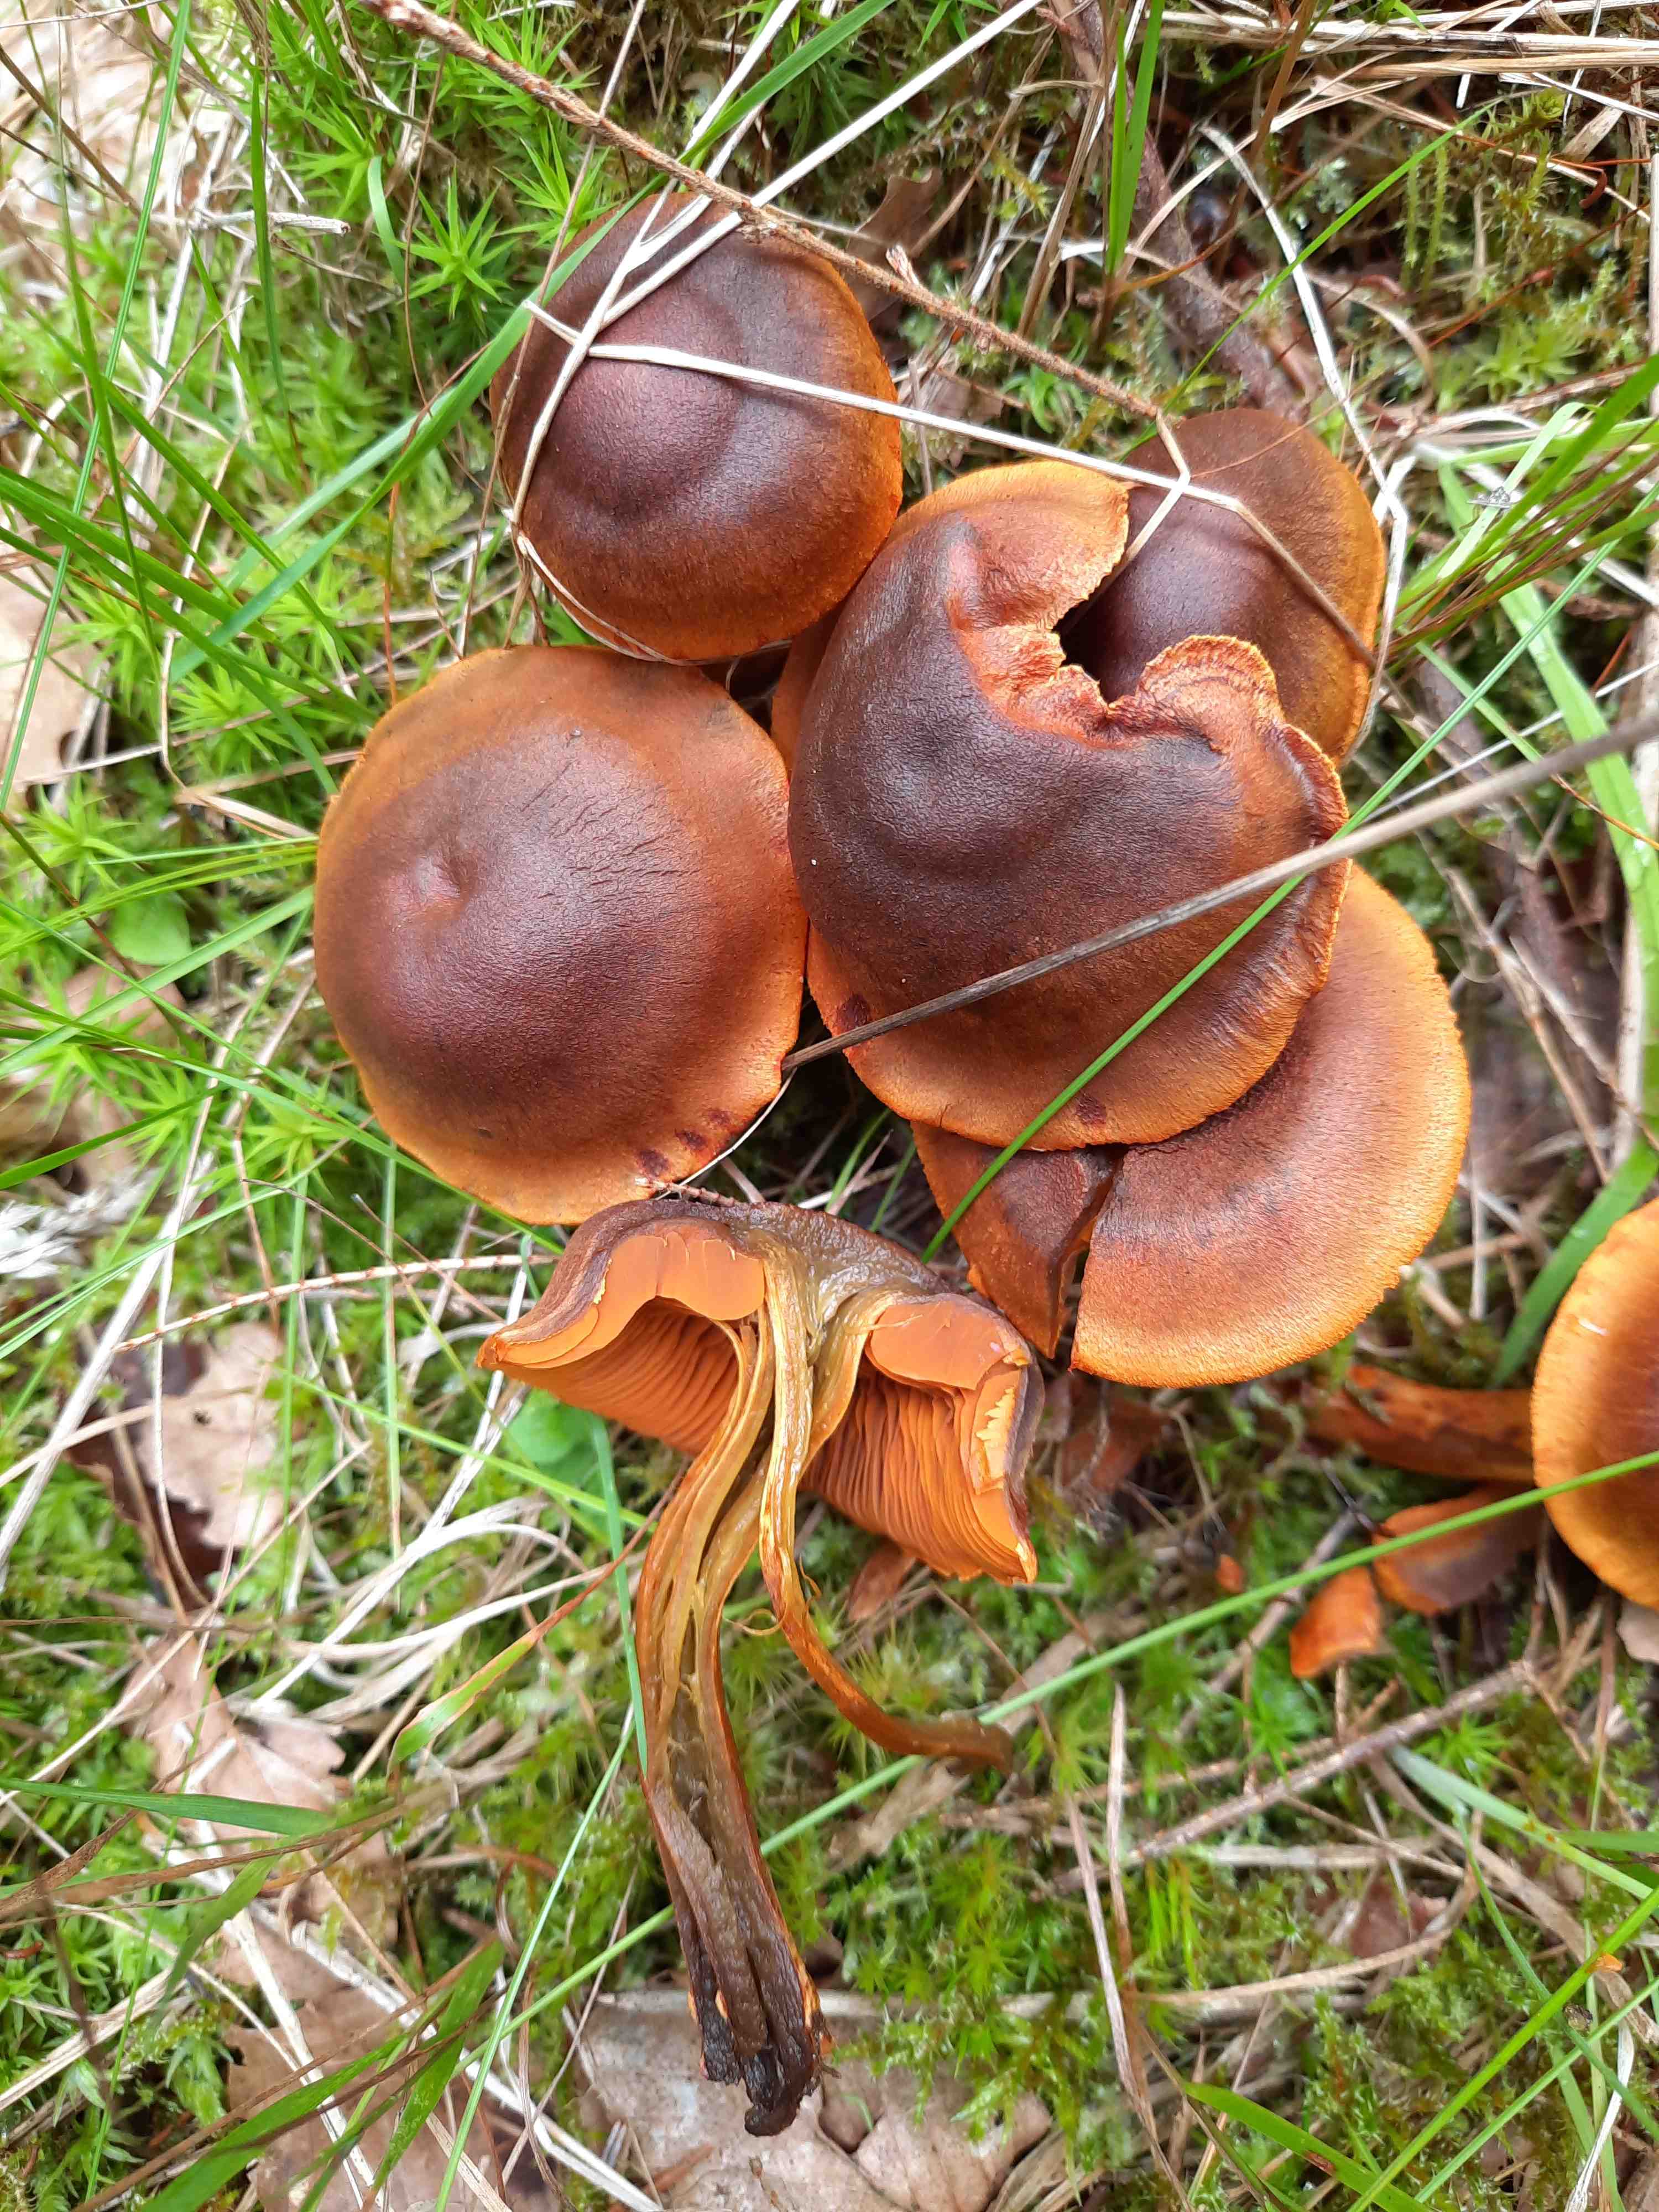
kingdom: Fungi
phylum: Basidiomycota
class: Agaricomycetes
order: Agaricales
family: Cortinariaceae
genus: Cortinarius
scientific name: Cortinarius malicorius
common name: grønkødet slørhat
